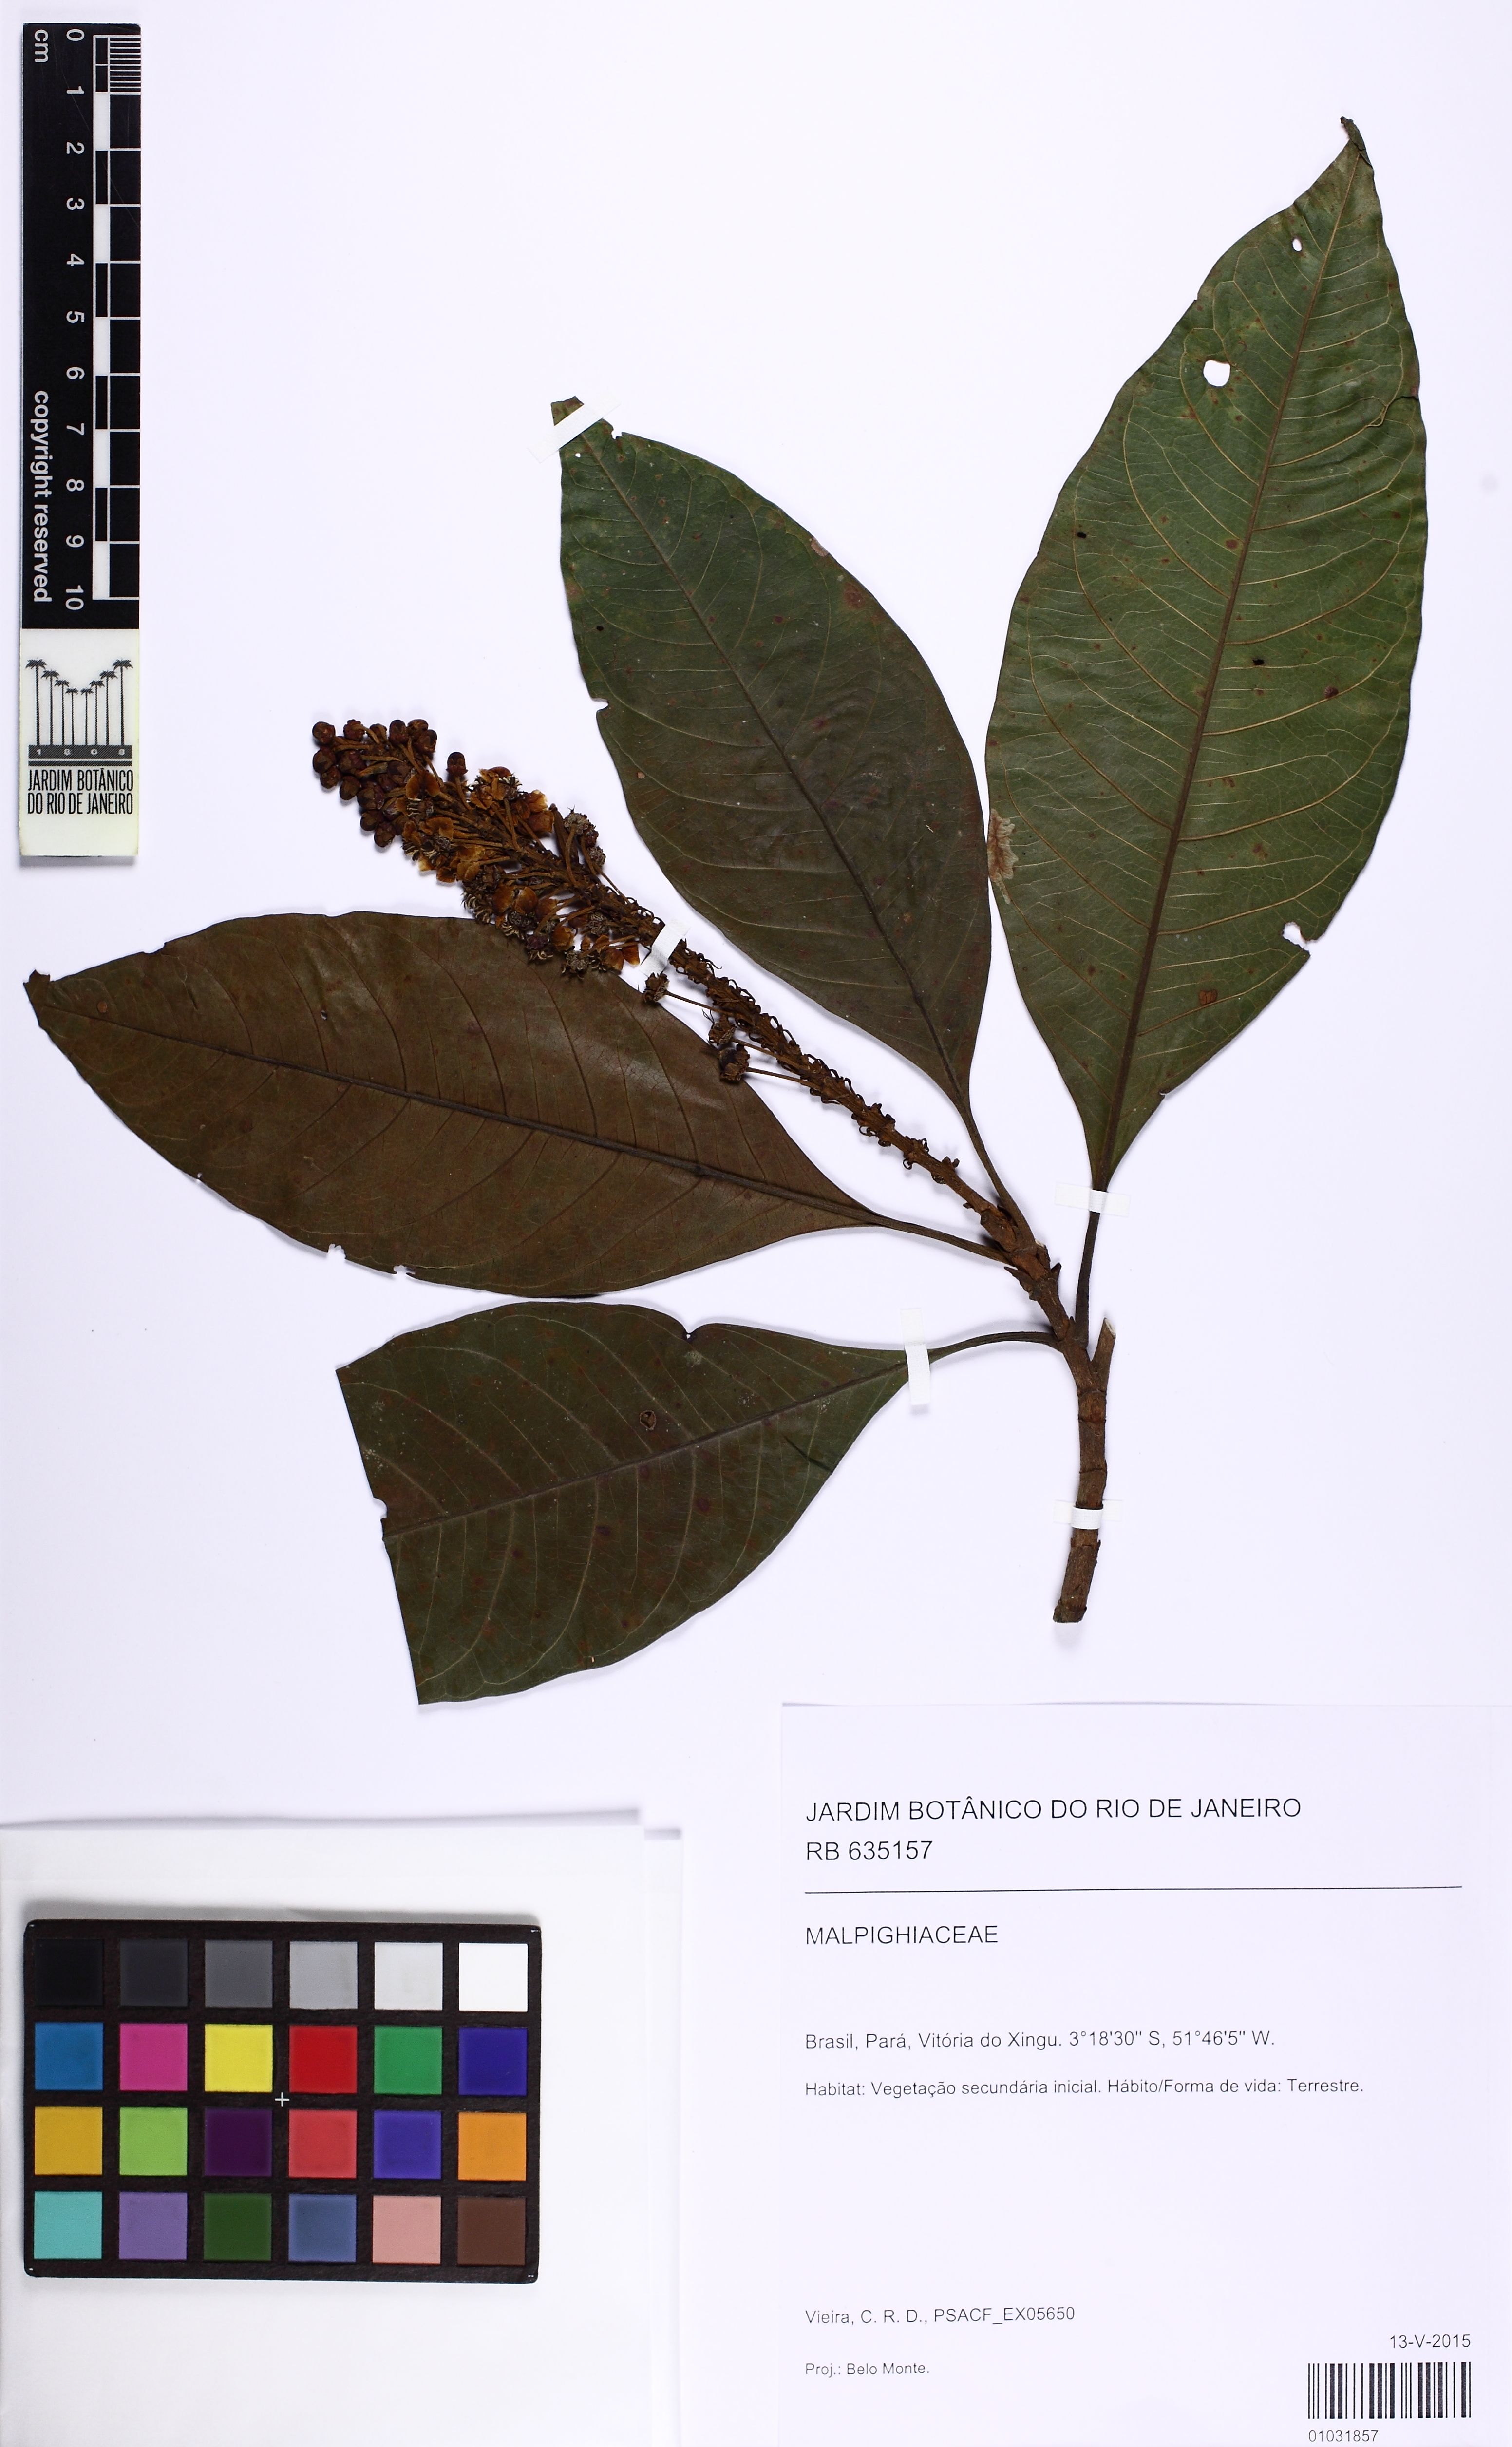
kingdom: Plantae
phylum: Tracheophyta
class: Magnoliopsida
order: Malpighiales
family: Malpighiaceae
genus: Byrsonima
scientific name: Byrsonima crispa
